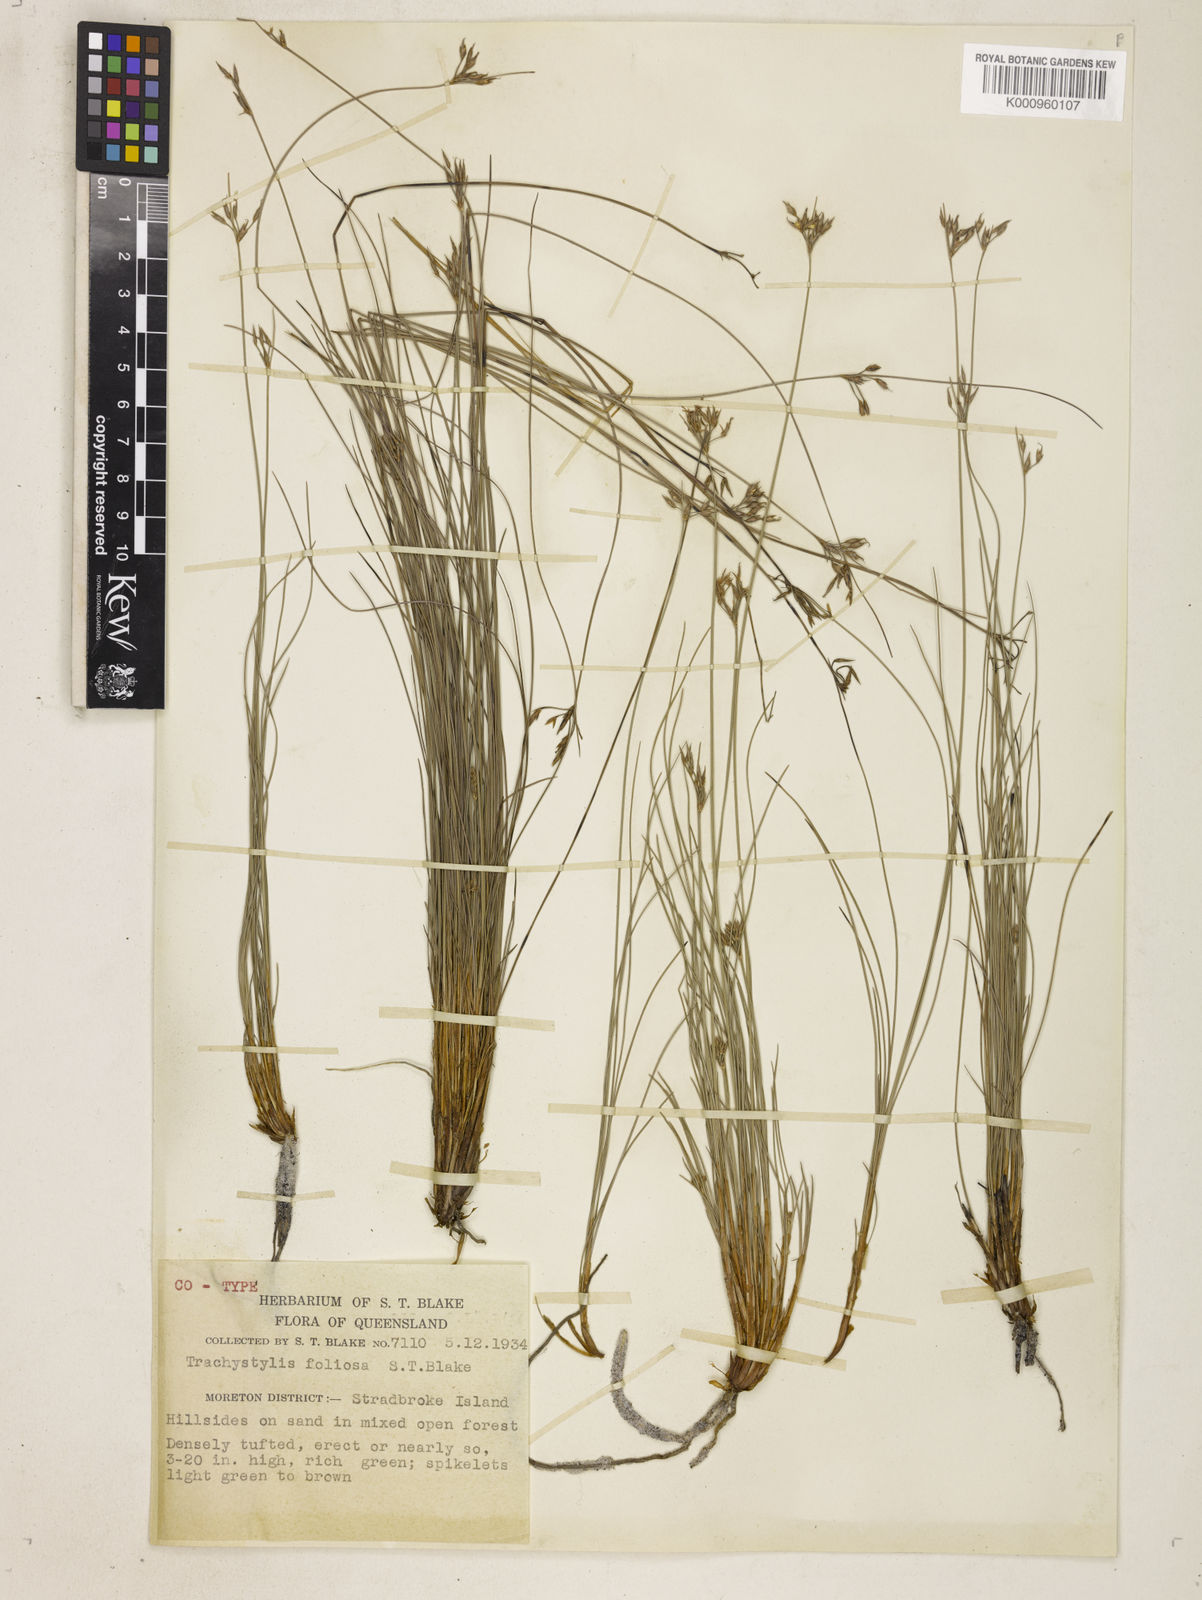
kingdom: Plantae
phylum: Tracheophyta
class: Liliopsida
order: Poales
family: Cyperaceae
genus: Trachystylis
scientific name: Trachystylis stradbrokensis
